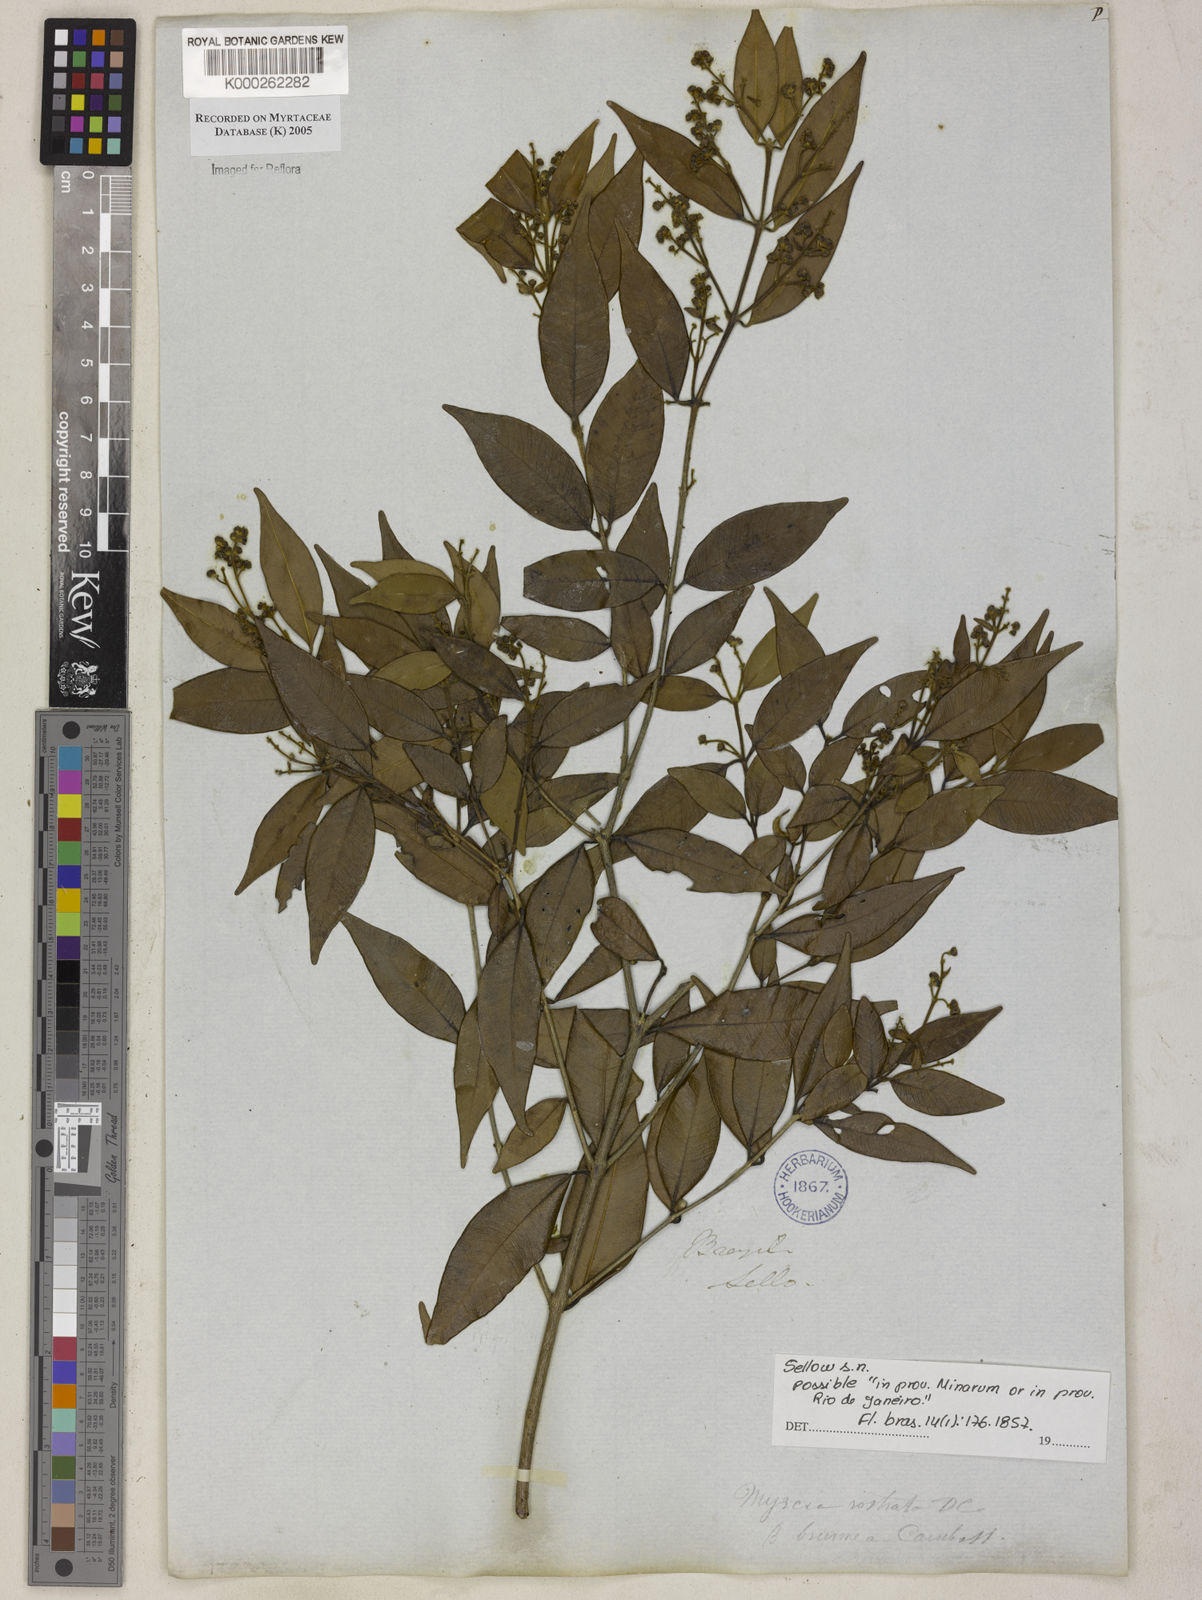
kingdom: Plantae
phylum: Tracheophyta
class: Magnoliopsida
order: Myrtales
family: Myrtaceae
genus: Myrcia
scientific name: Myrcia splendens
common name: Surinam cherry
